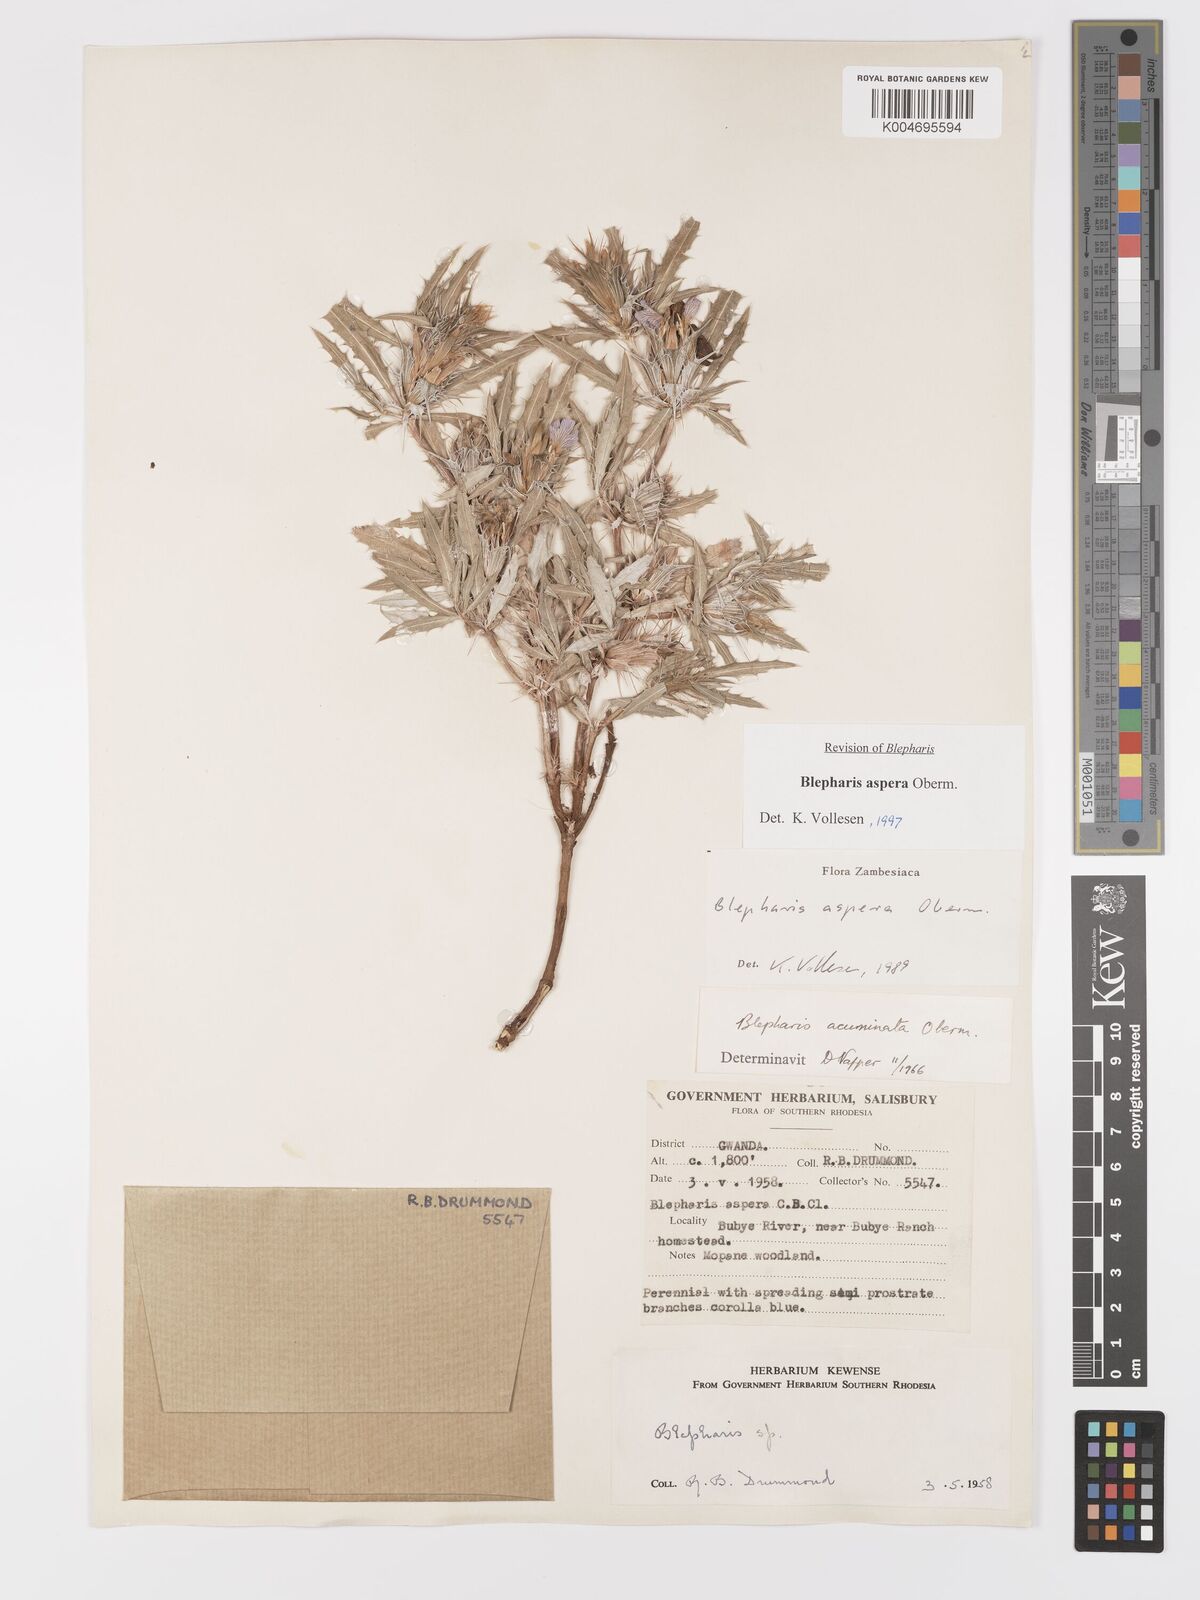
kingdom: Plantae
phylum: Tracheophyta
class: Magnoliopsida
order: Lamiales
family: Acanthaceae
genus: Blepharis
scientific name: Blepharis aspera
